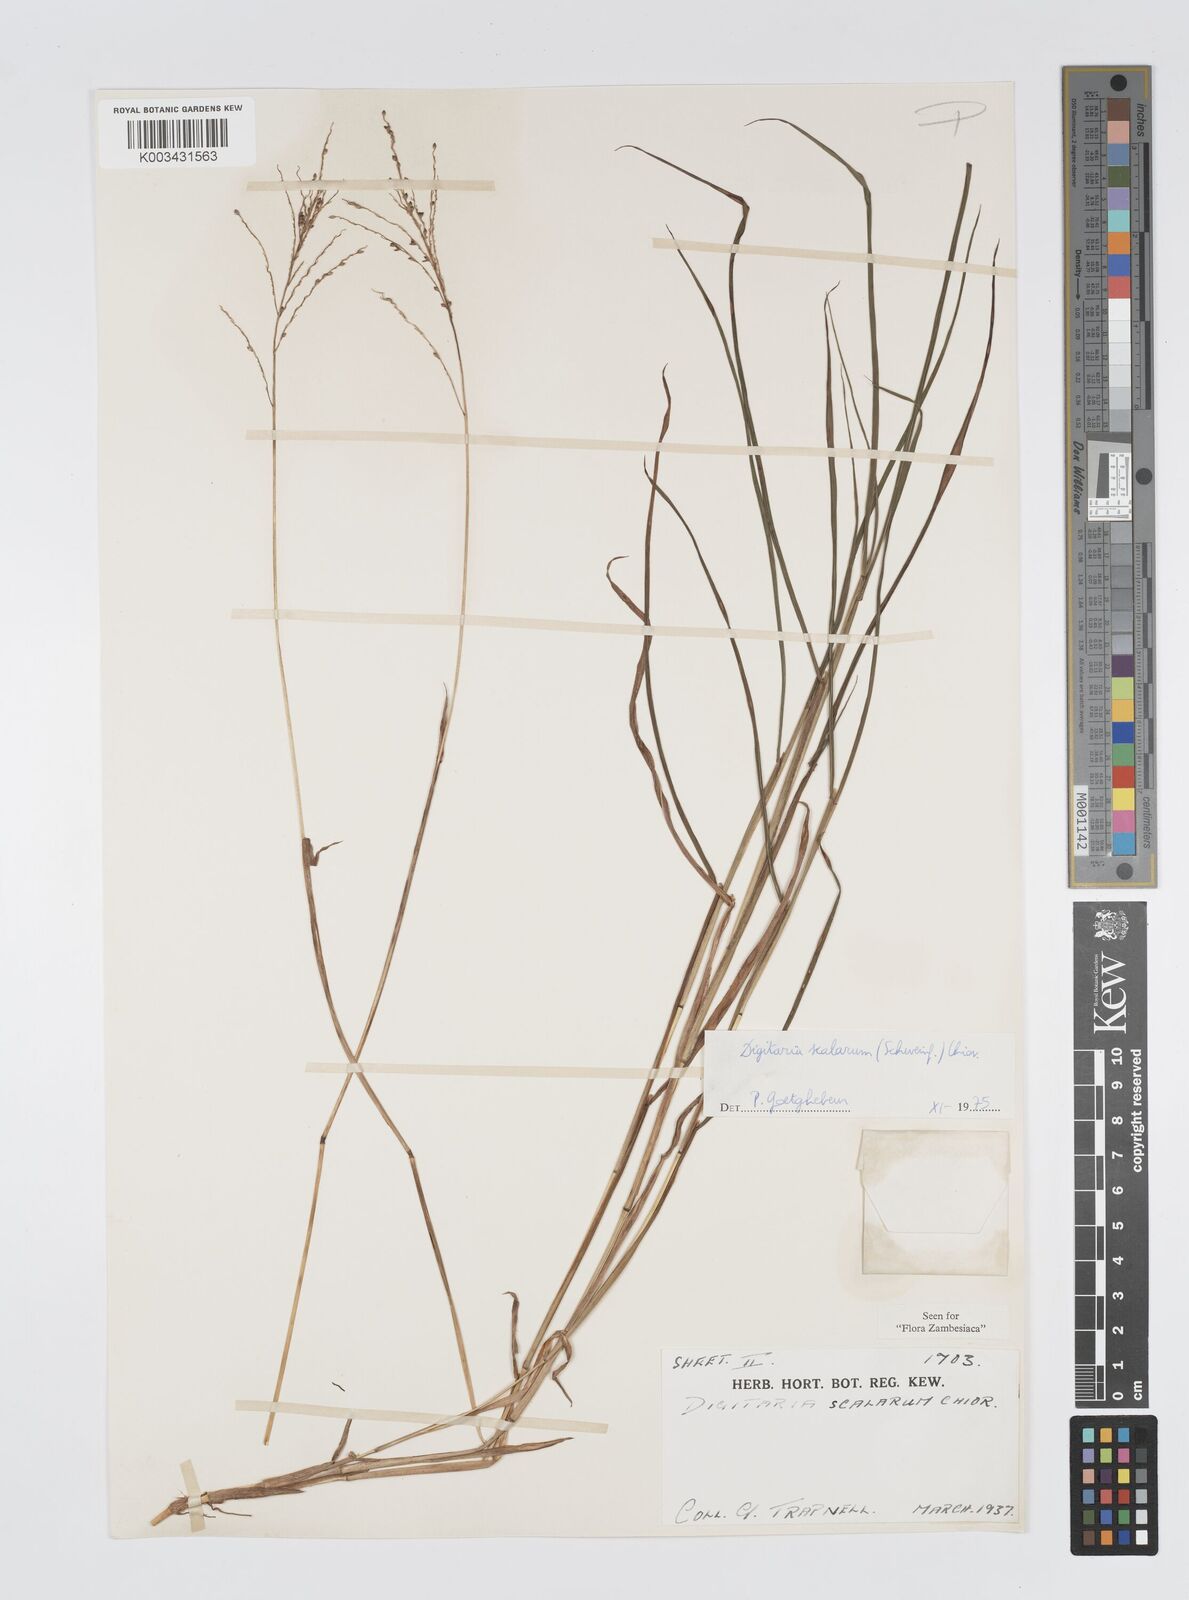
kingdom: Plantae
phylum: Tracheophyta
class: Liliopsida
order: Poales
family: Poaceae
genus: Digitaria
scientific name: Digitaria abyssinica
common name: African couchgrass
